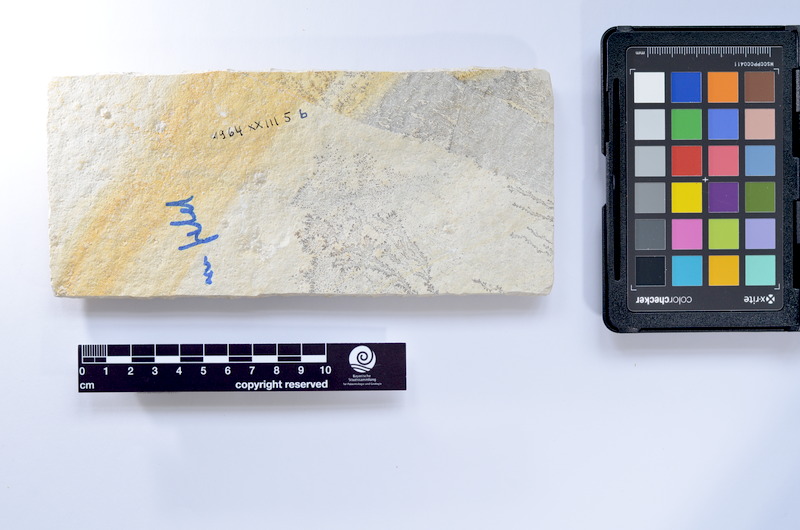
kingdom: Animalia
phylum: Chordata
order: Elopiformes
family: Anaethalionidae
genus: Anaethalion
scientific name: Anaethalion knorri
